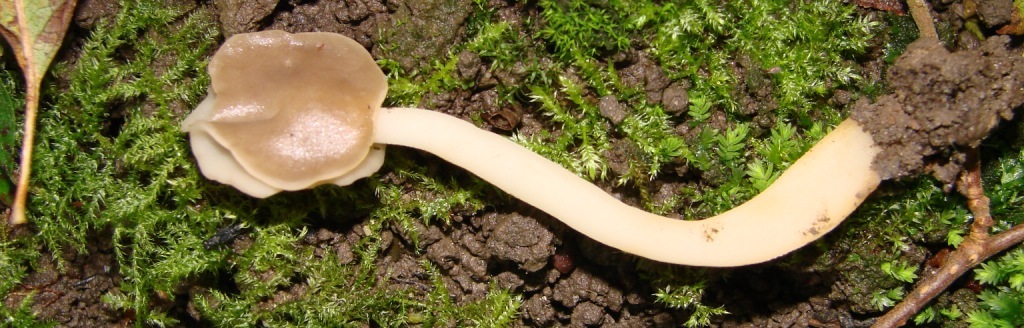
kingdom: Fungi
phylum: Ascomycota
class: Pezizomycetes
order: Pezizales
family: Helvellaceae
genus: Helvella
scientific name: Helvella elastica
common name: elastik-foldhat
